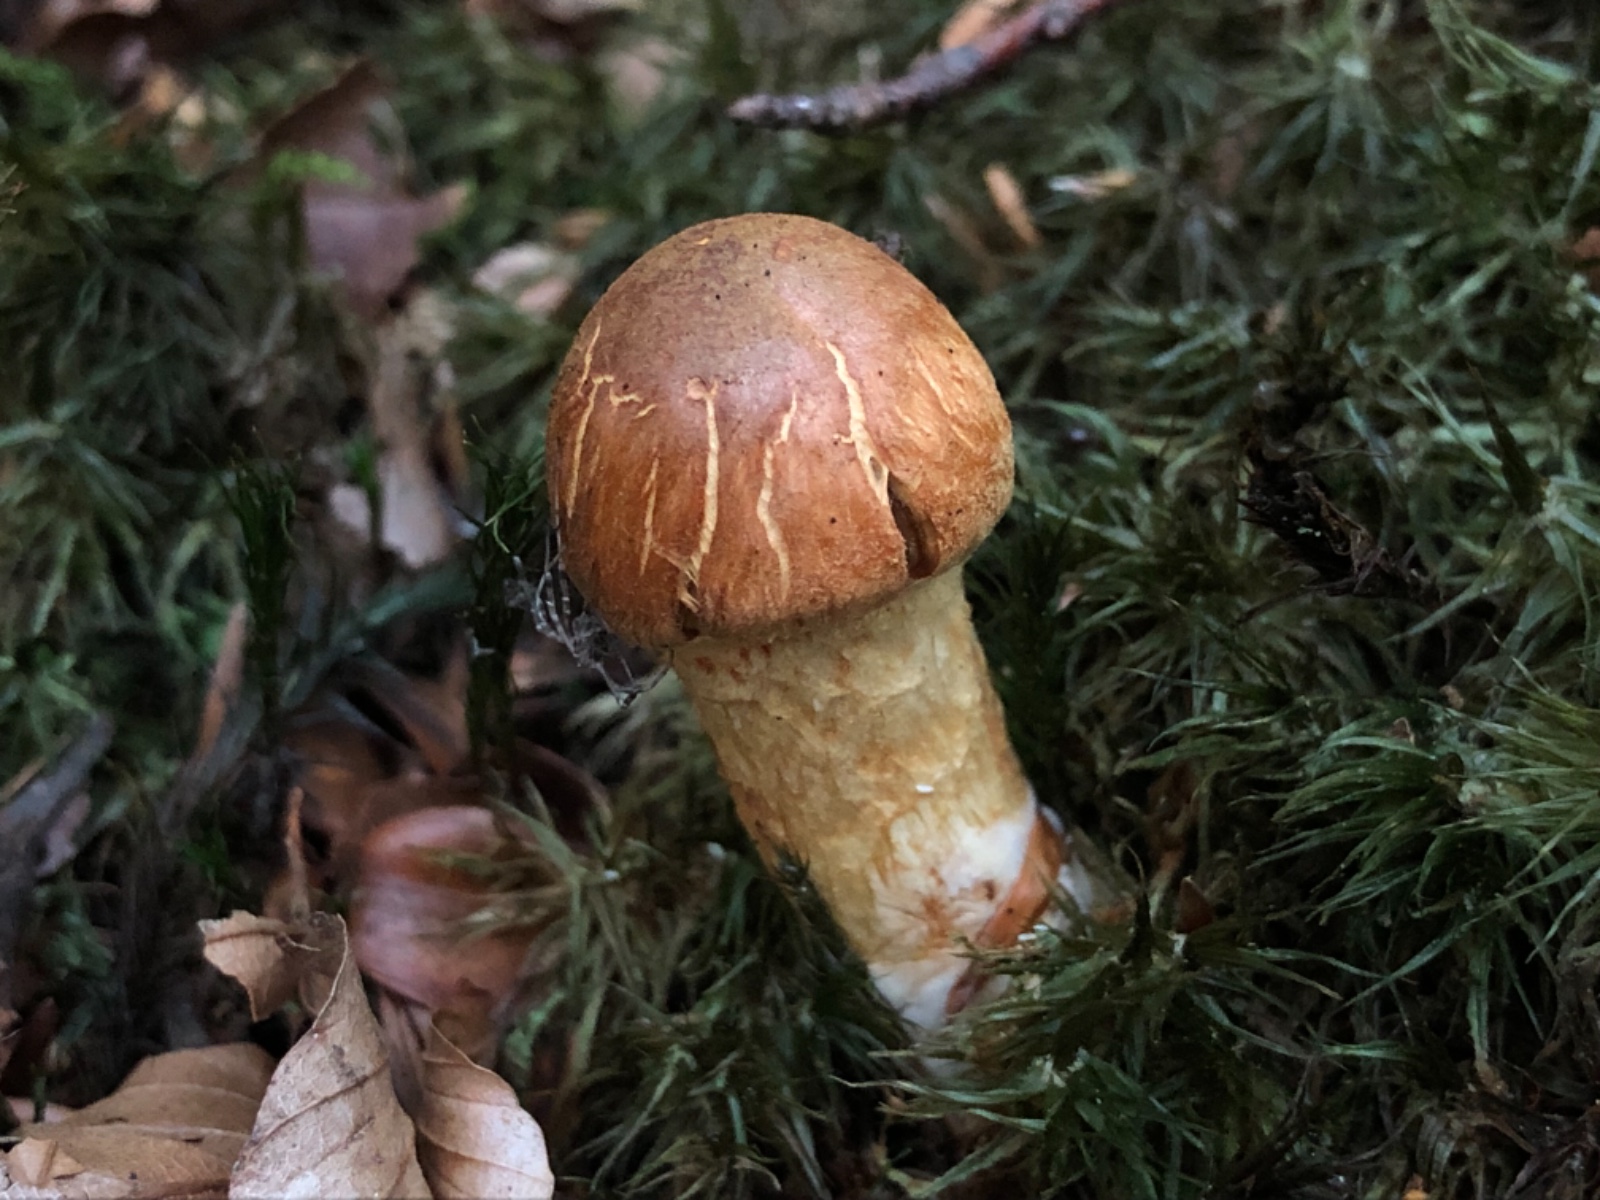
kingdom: Fungi
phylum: Basidiomycota
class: Agaricomycetes
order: Agaricales
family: Cortinariaceae
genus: Aureonarius
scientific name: Aureonarius limonius
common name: orangegul slørhat
